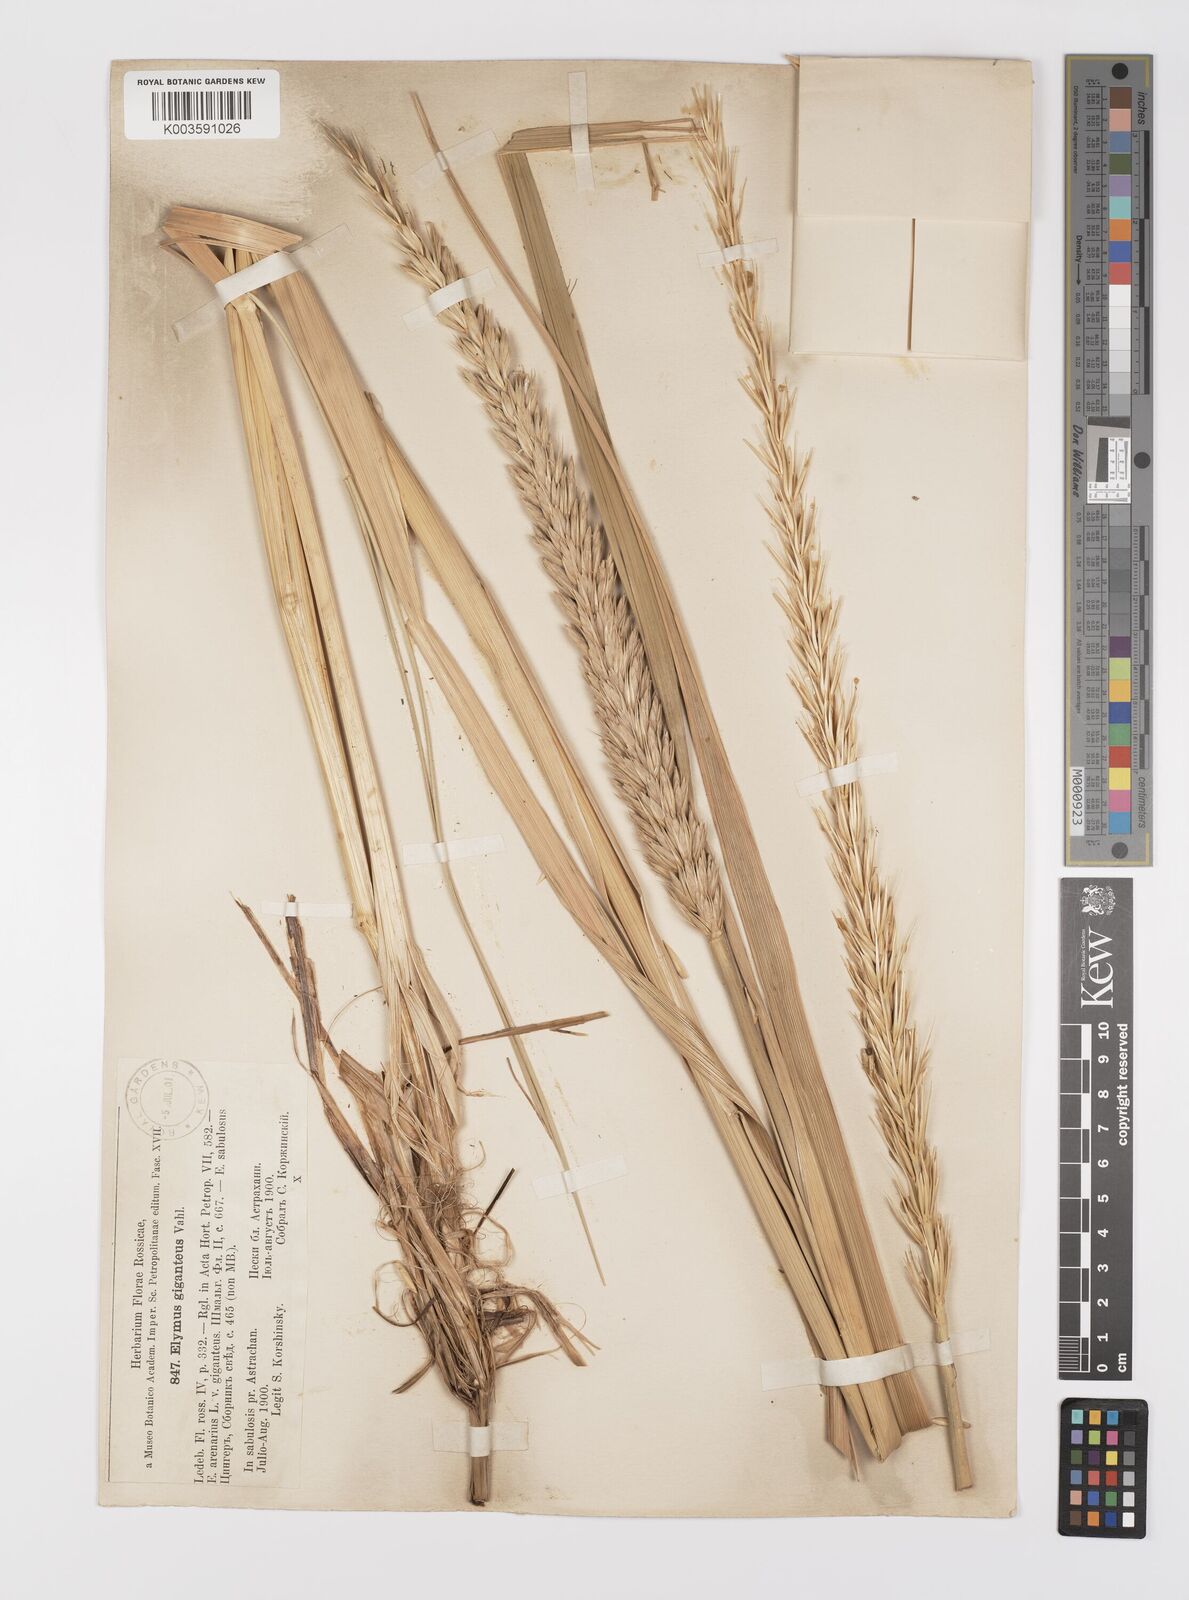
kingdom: Plantae
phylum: Tracheophyta
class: Liliopsida
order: Poales
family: Poaceae
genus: Leymus
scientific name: Leymus racemosus
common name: Mammoth wildrye
